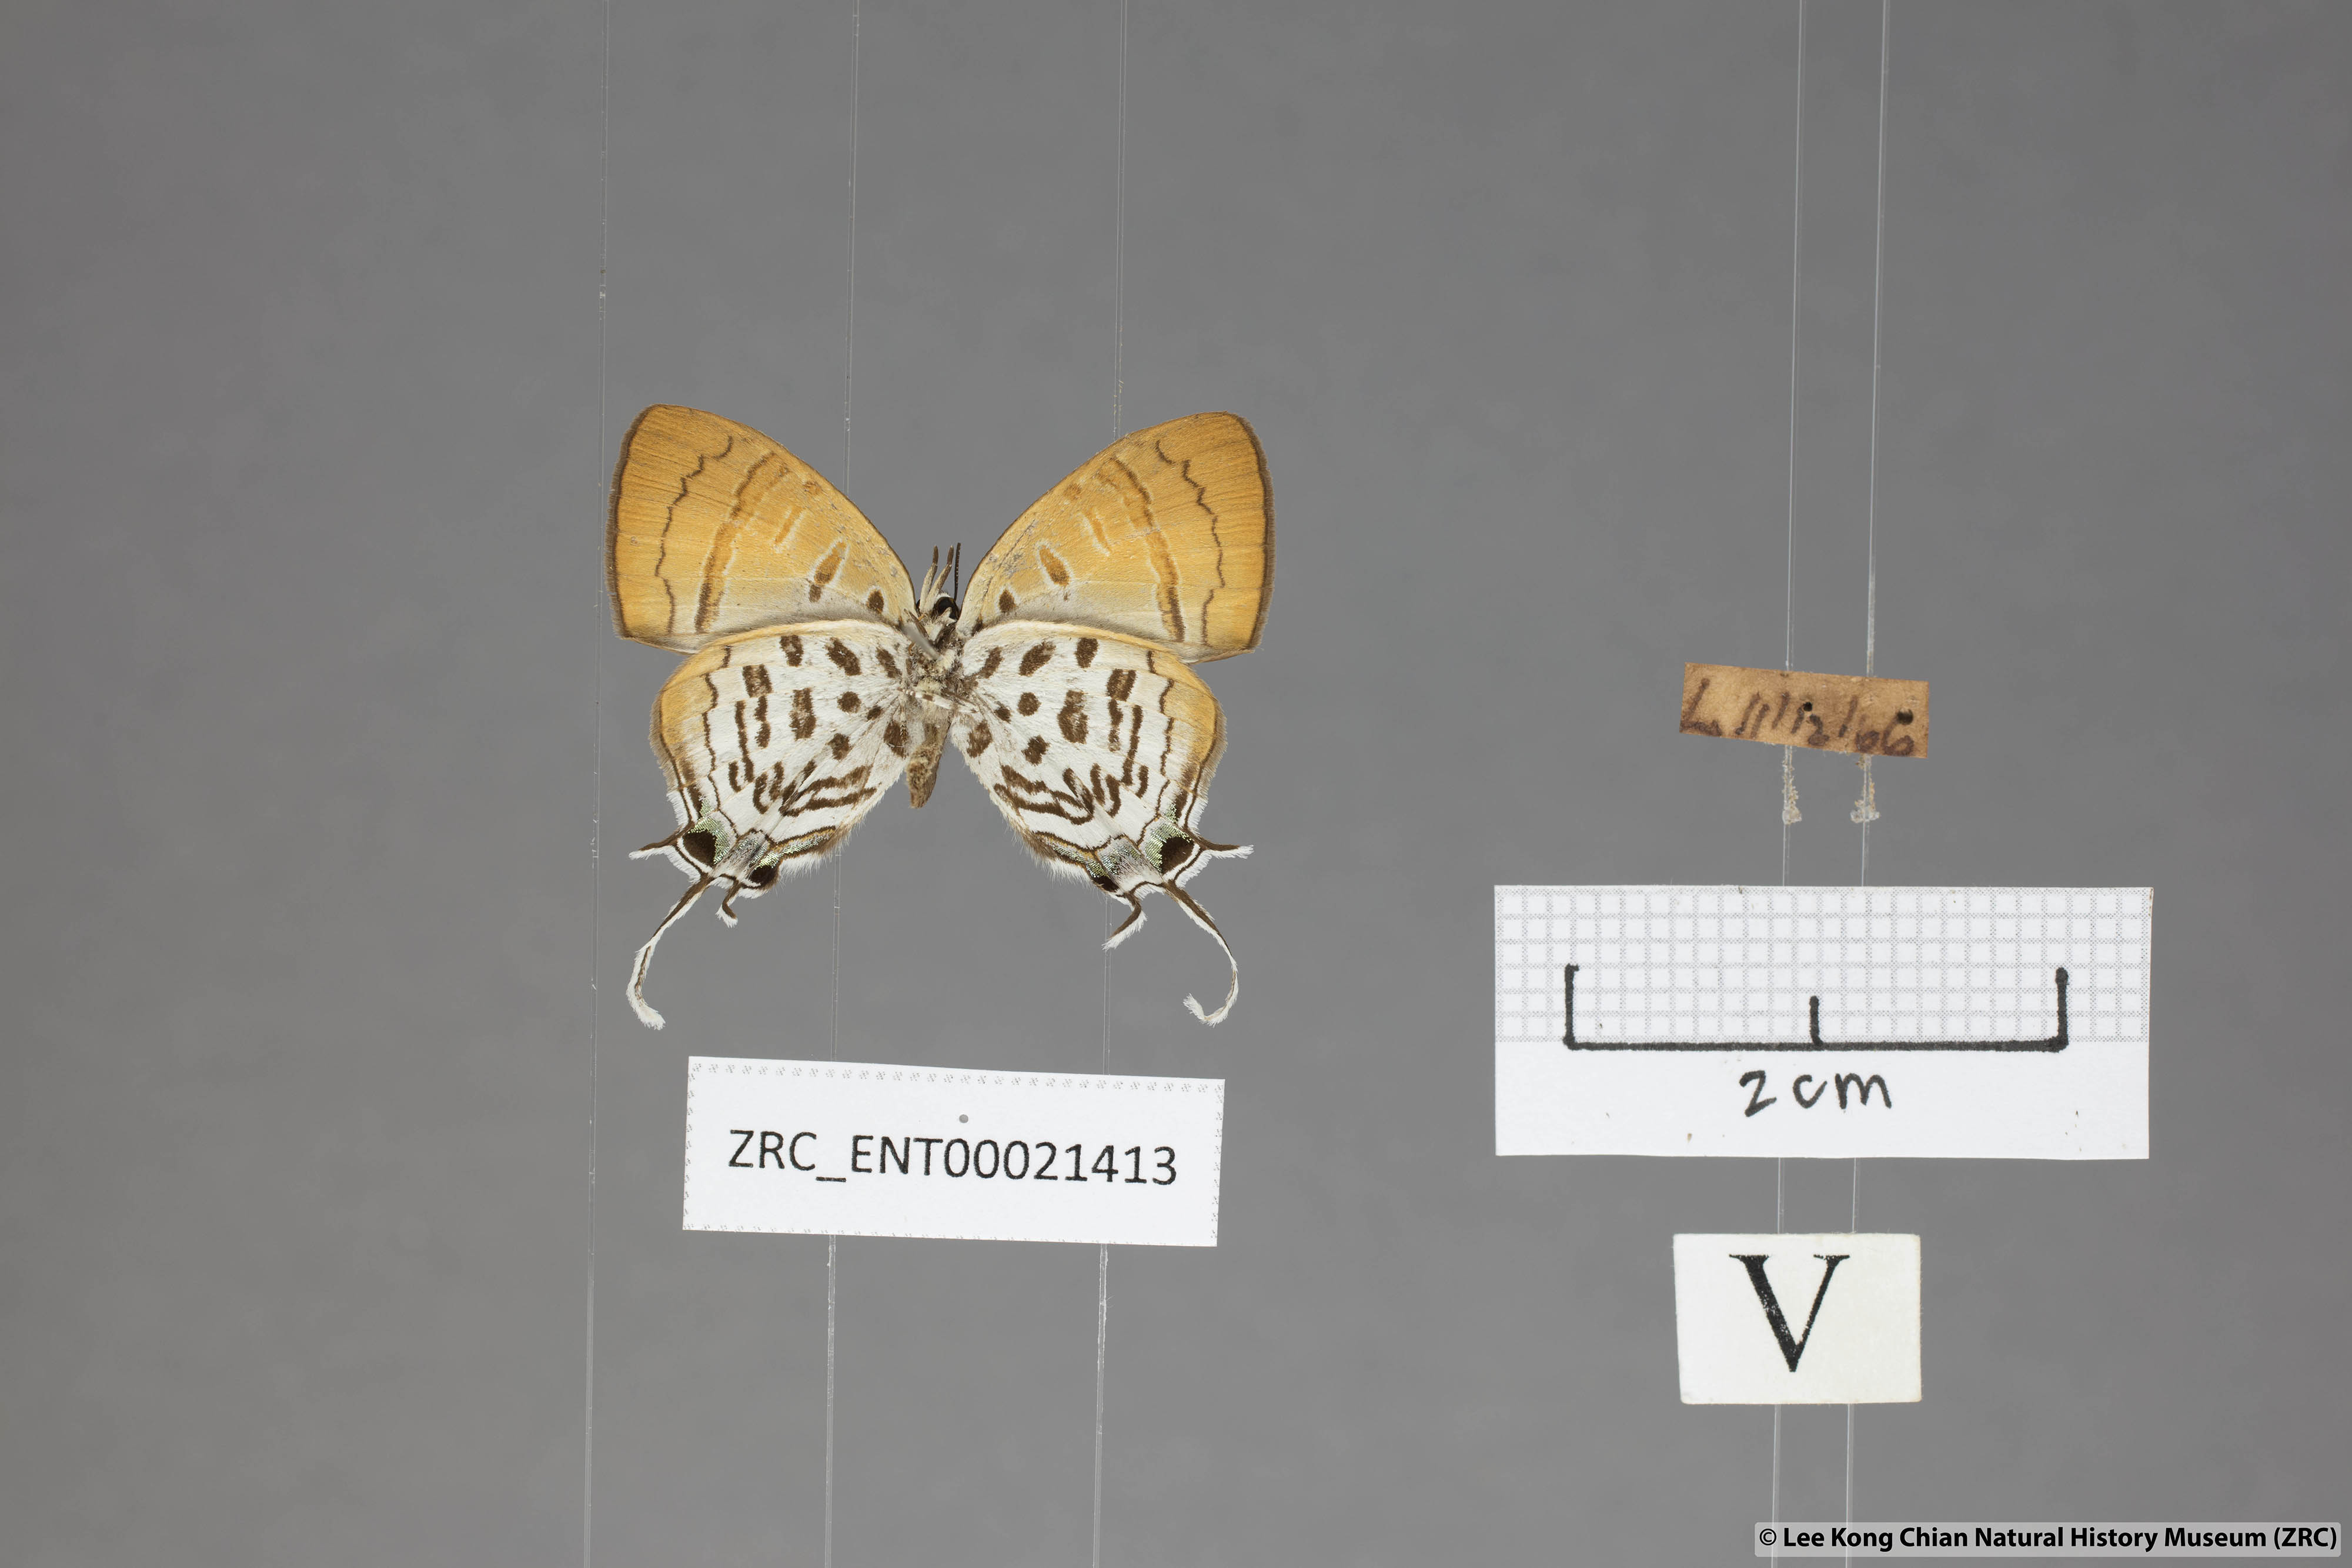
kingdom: Animalia
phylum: Arthropoda
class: Insecta
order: Lepidoptera
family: Lycaenidae
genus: Drupadia
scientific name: Drupadia theda
